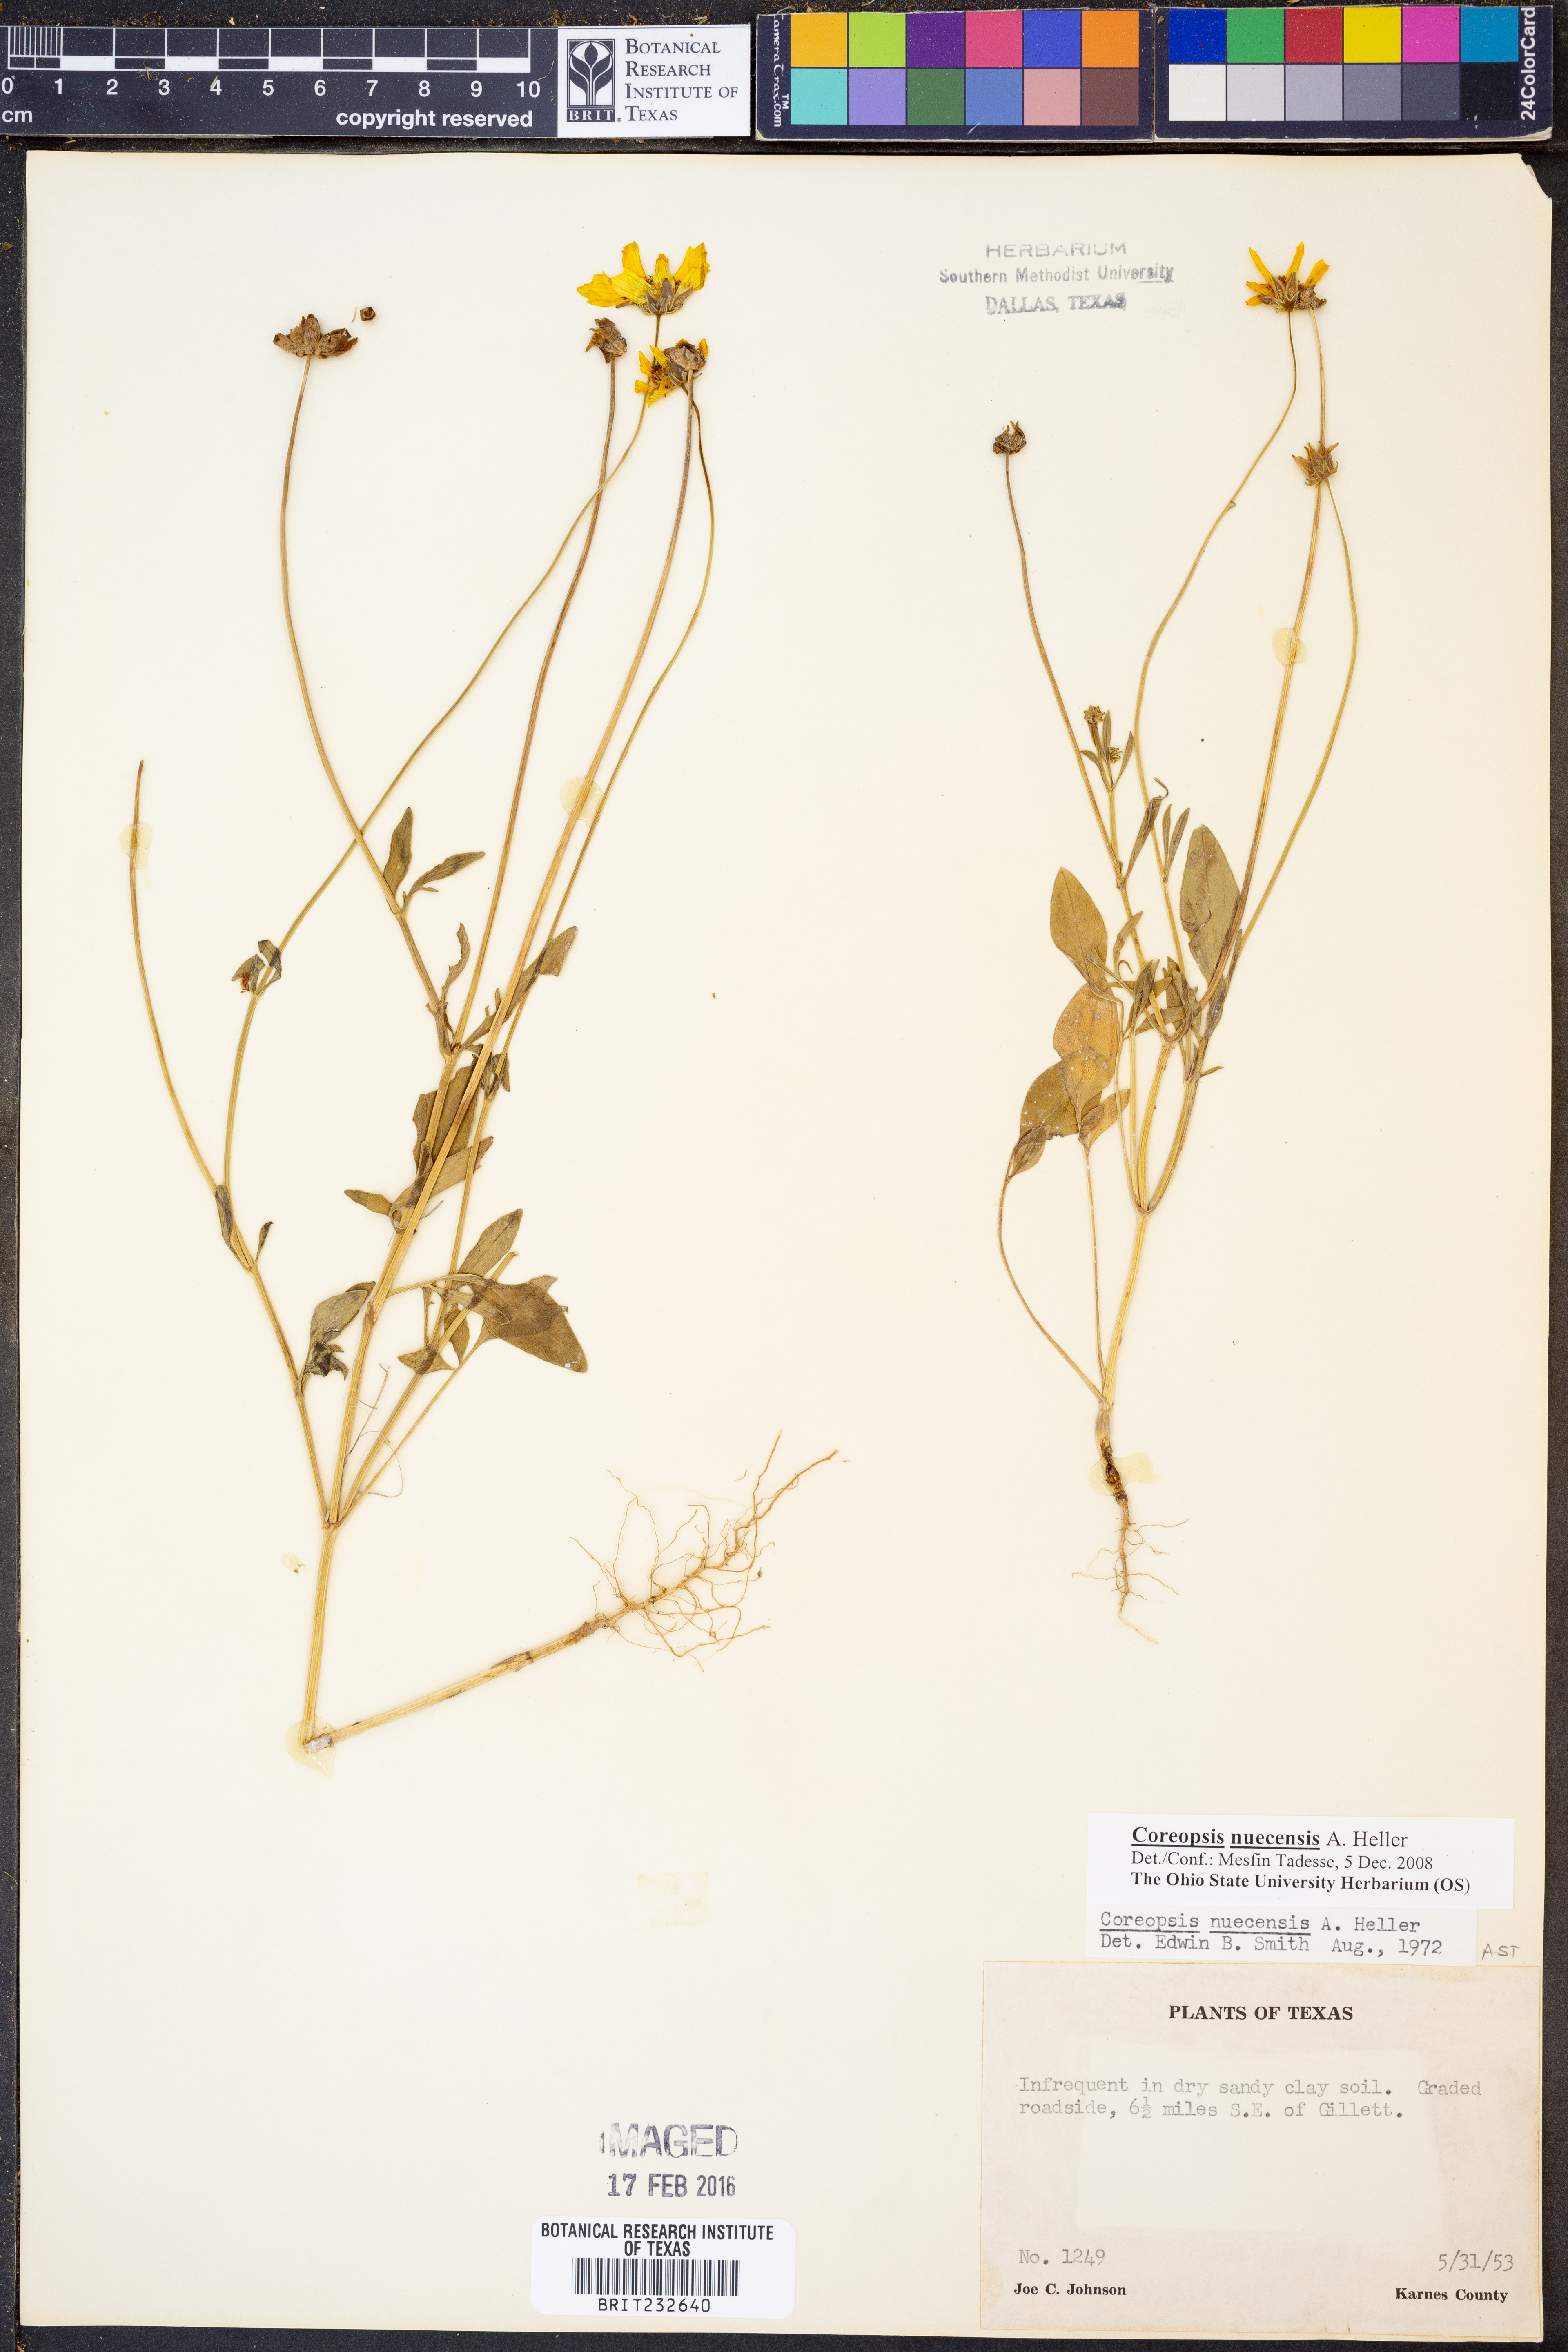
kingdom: Plantae
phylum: Tracheophyta
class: Magnoliopsida
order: Asterales
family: Asteraceae
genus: Coreopsis
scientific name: Coreopsis nuecensis
